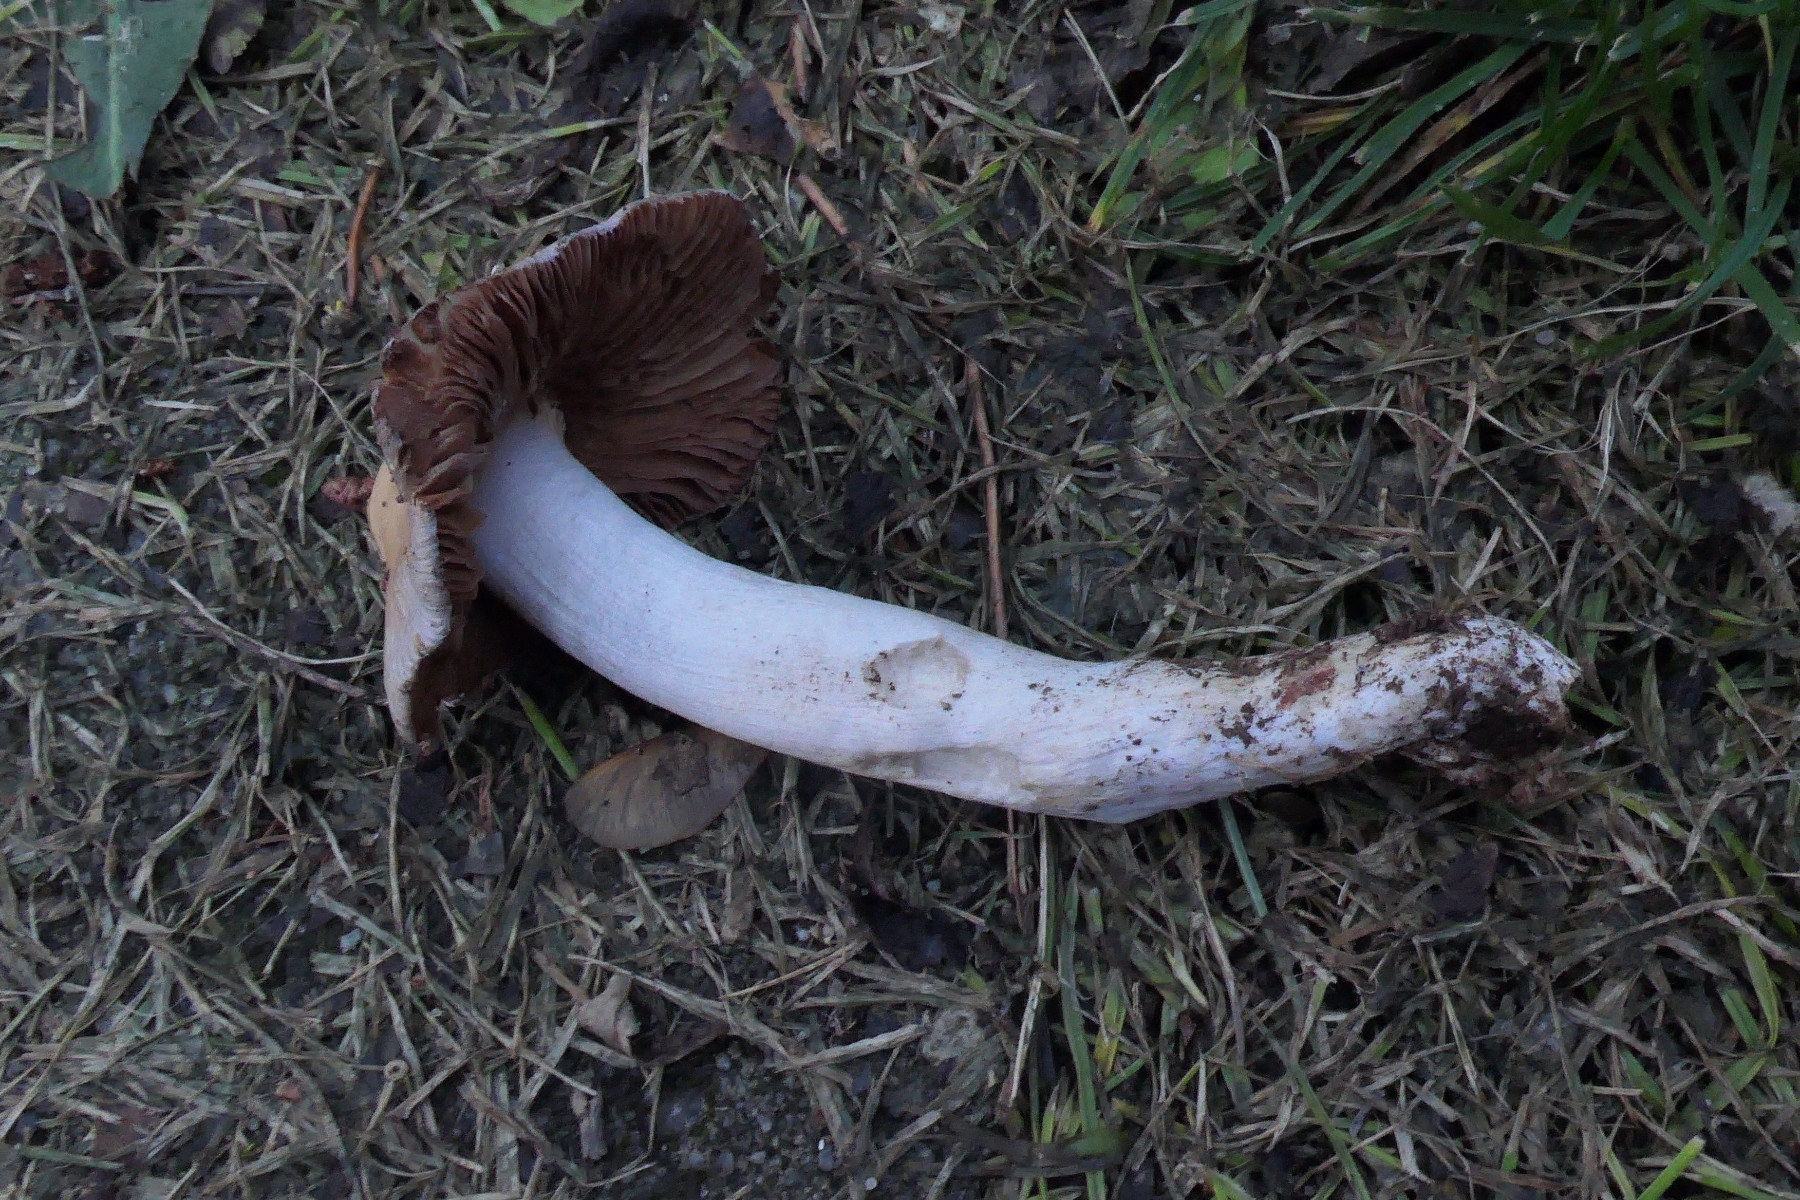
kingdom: Fungi
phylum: Basidiomycota
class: Agaricomycetes
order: Agaricales
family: Cortinariaceae
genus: Cortinarius
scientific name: Cortinarius stillatitius
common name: honningduftende slørhat
